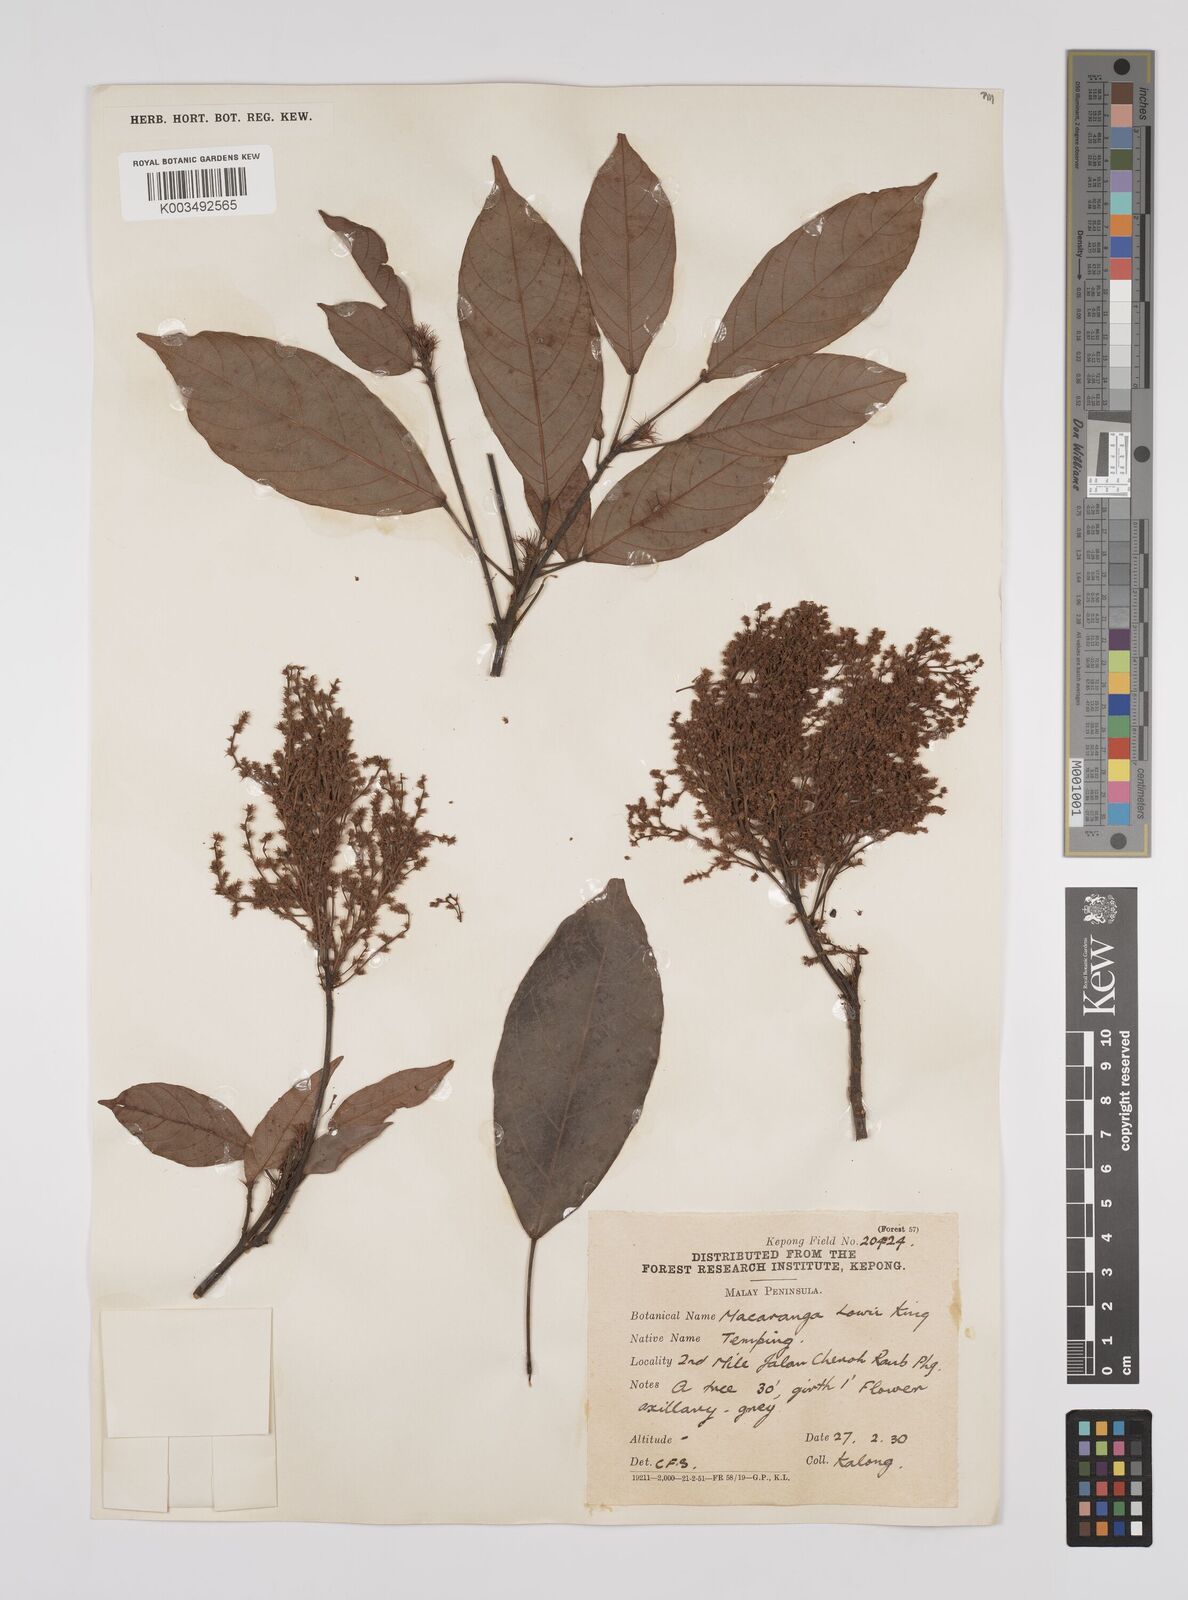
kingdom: Plantae
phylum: Tracheophyta
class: Magnoliopsida
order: Malpighiales
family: Euphorbiaceae
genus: Macaranga
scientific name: Macaranga lowii
